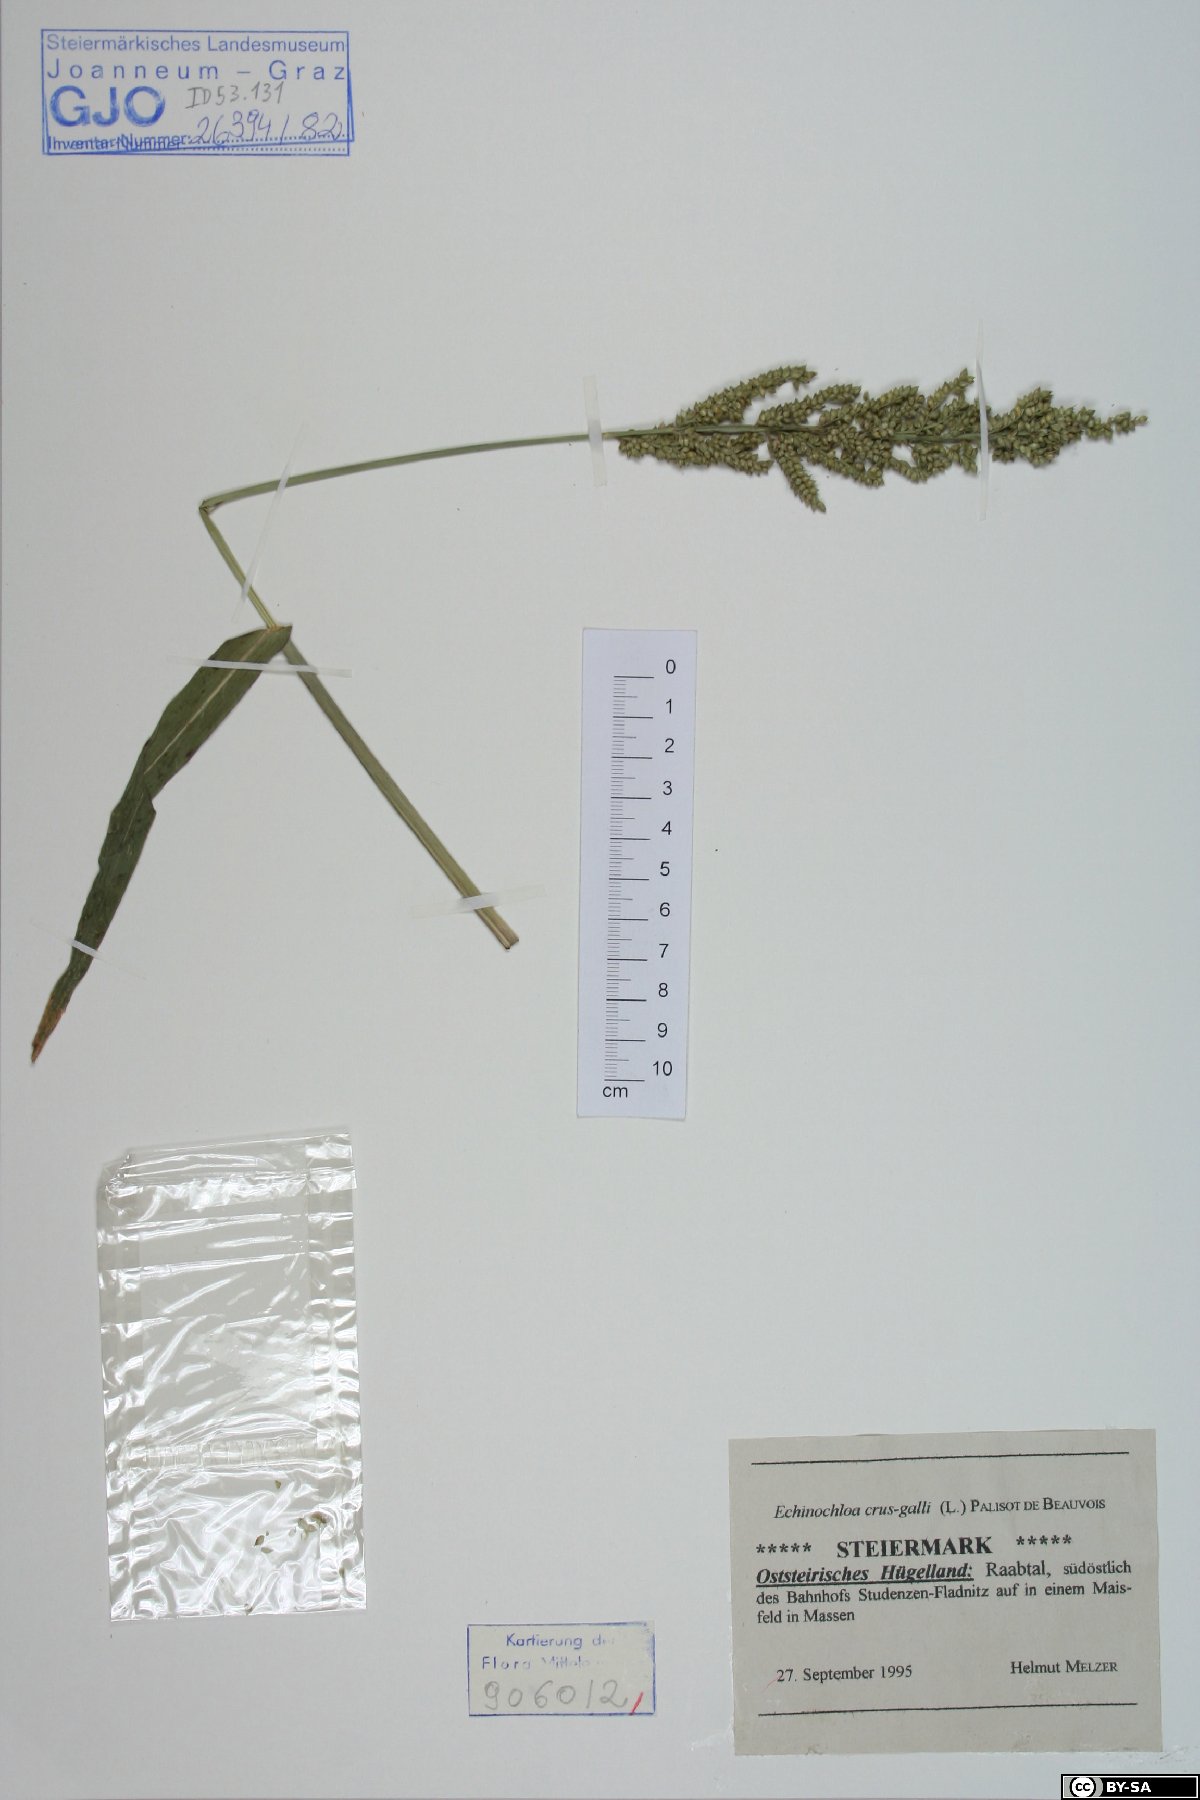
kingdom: Plantae
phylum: Tracheophyta
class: Liliopsida
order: Poales
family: Poaceae
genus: Echinochloa
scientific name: Echinochloa crus-galli
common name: Cockspur
